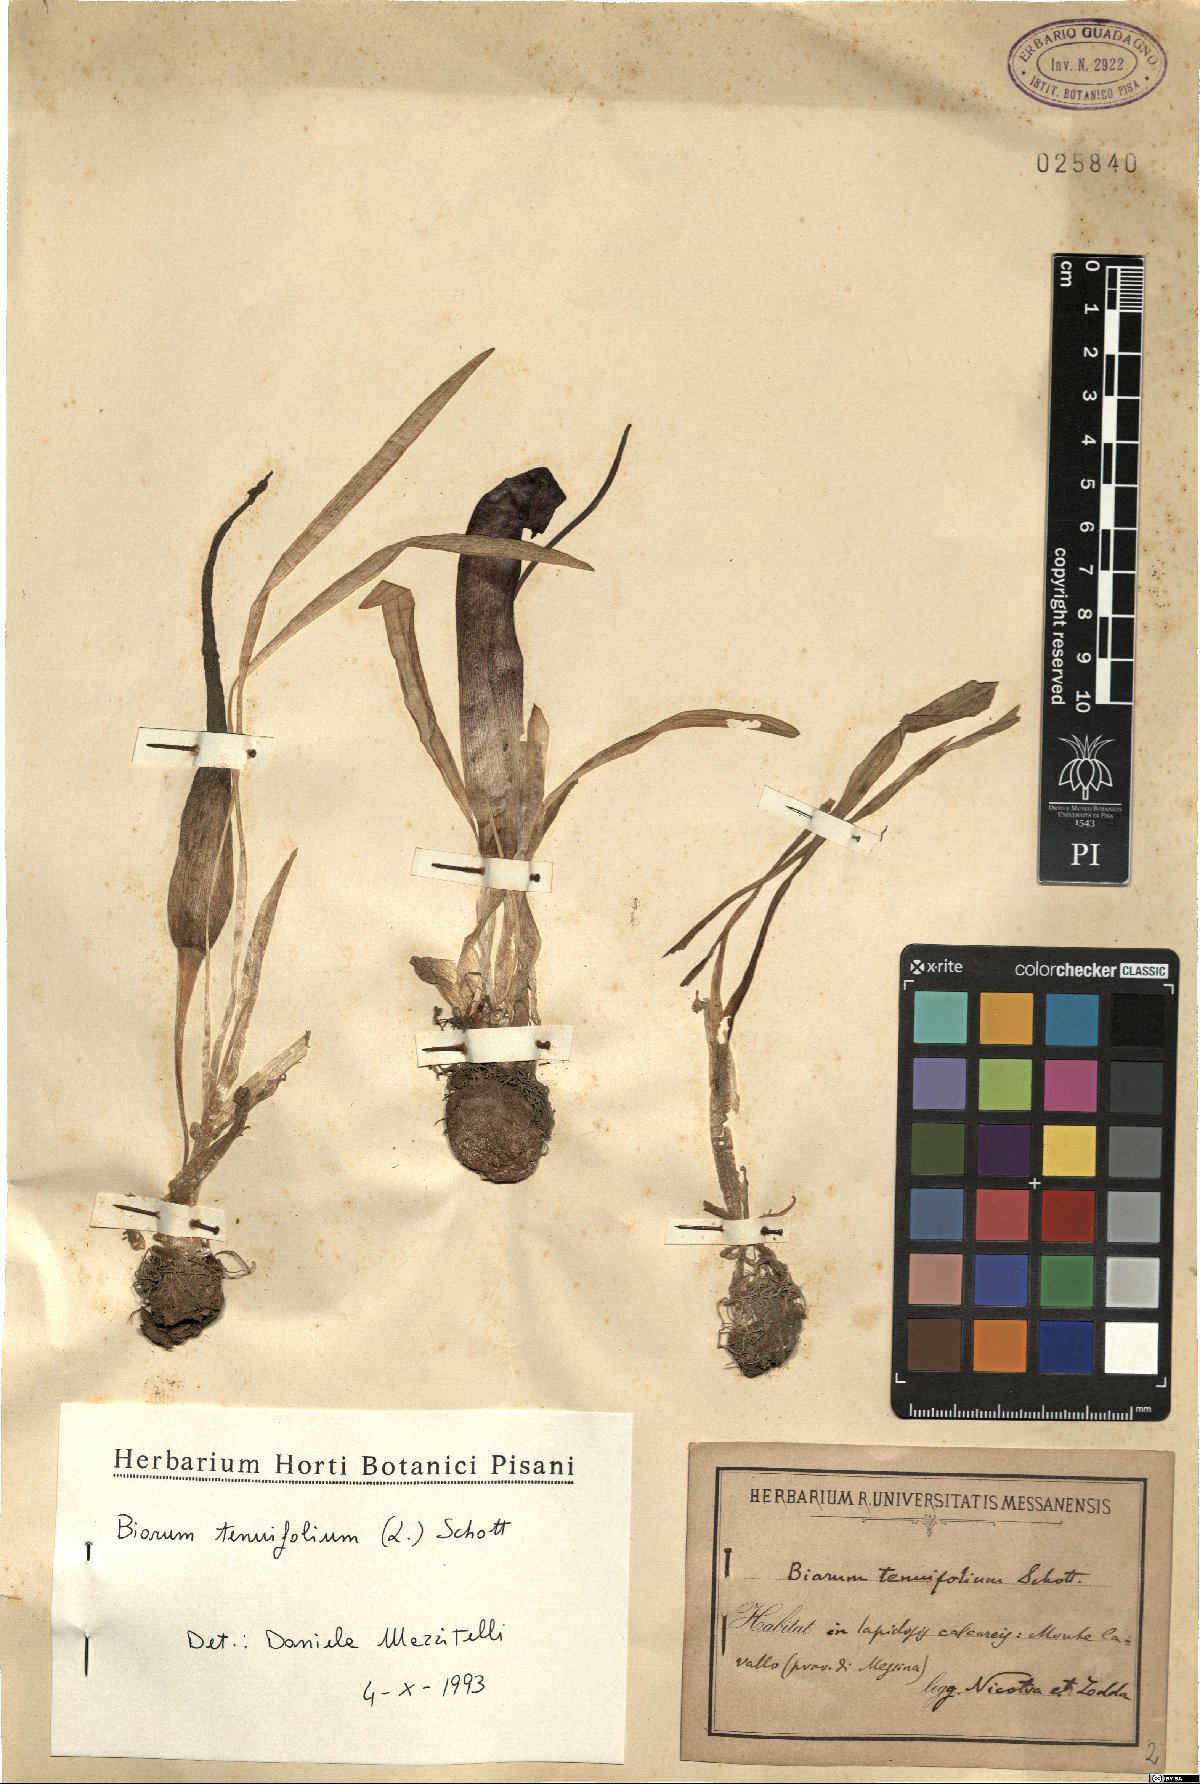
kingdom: Plantae
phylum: Tracheophyta
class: Liliopsida
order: Alismatales
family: Araceae
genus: Biarum
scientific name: Biarum tenuifolium
